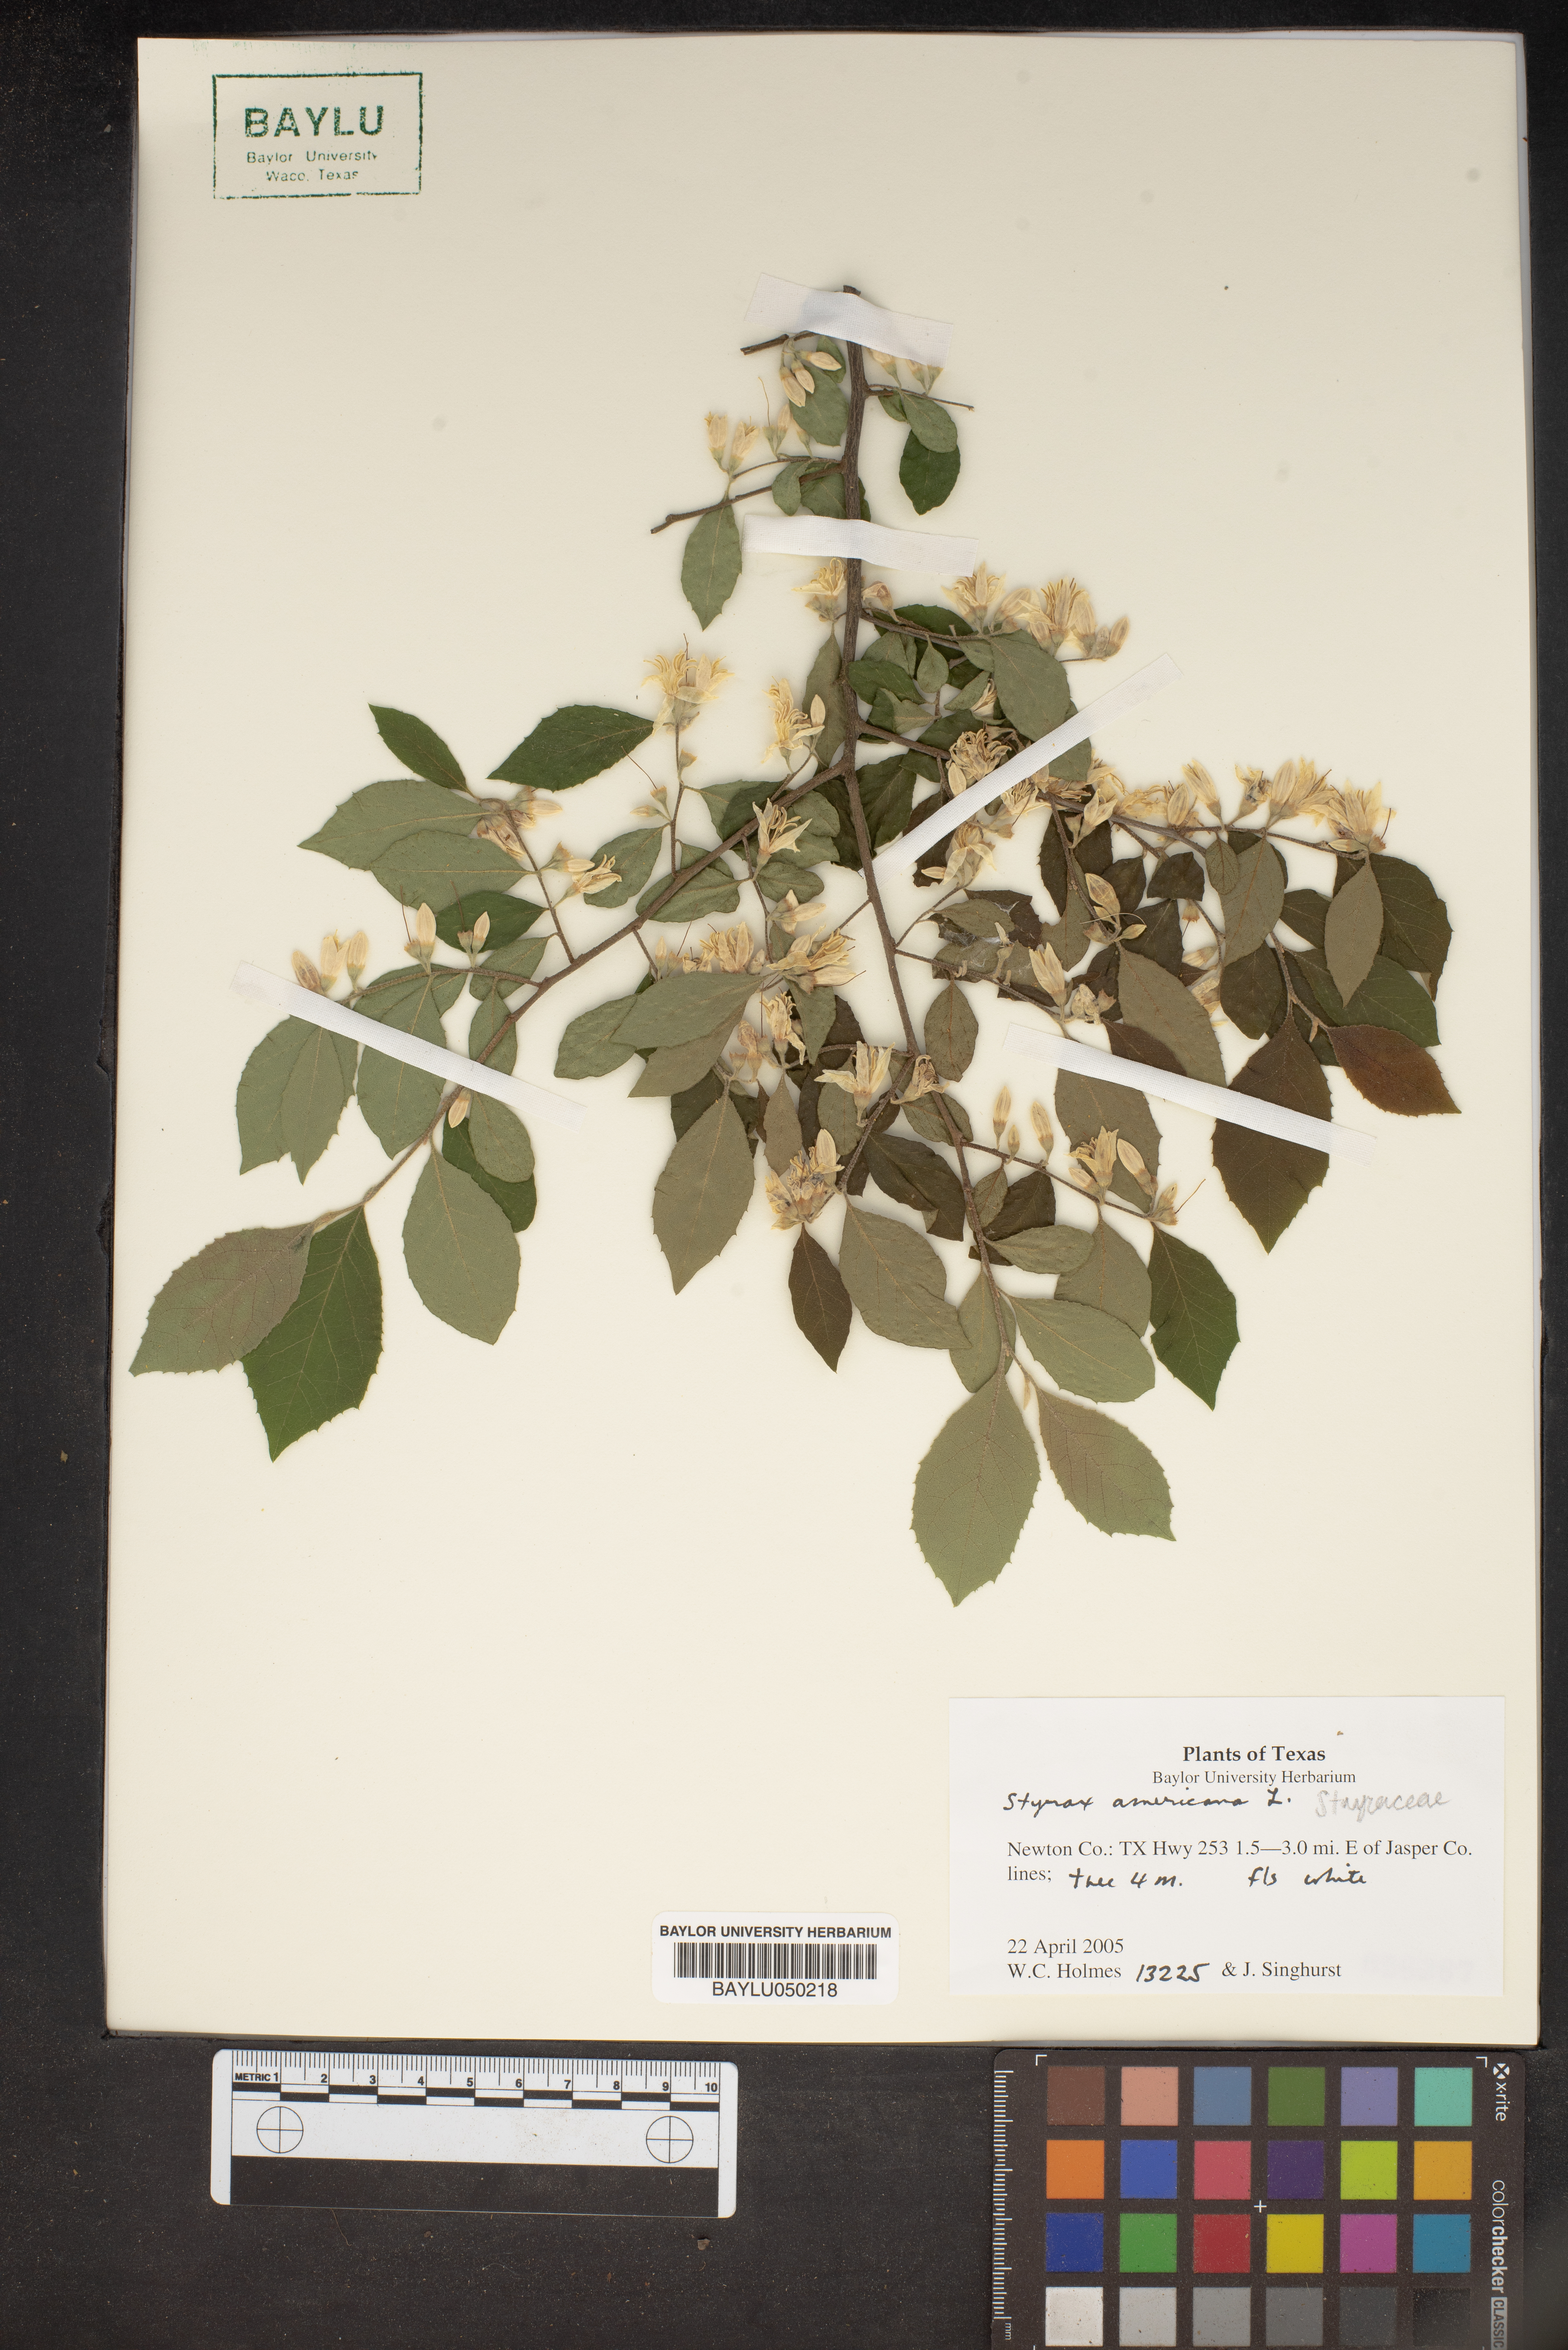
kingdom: Plantae
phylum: Tracheophyta
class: Magnoliopsida
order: Ericales
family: Styracaceae
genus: Styrax
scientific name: Styrax americanus
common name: American snowbell
